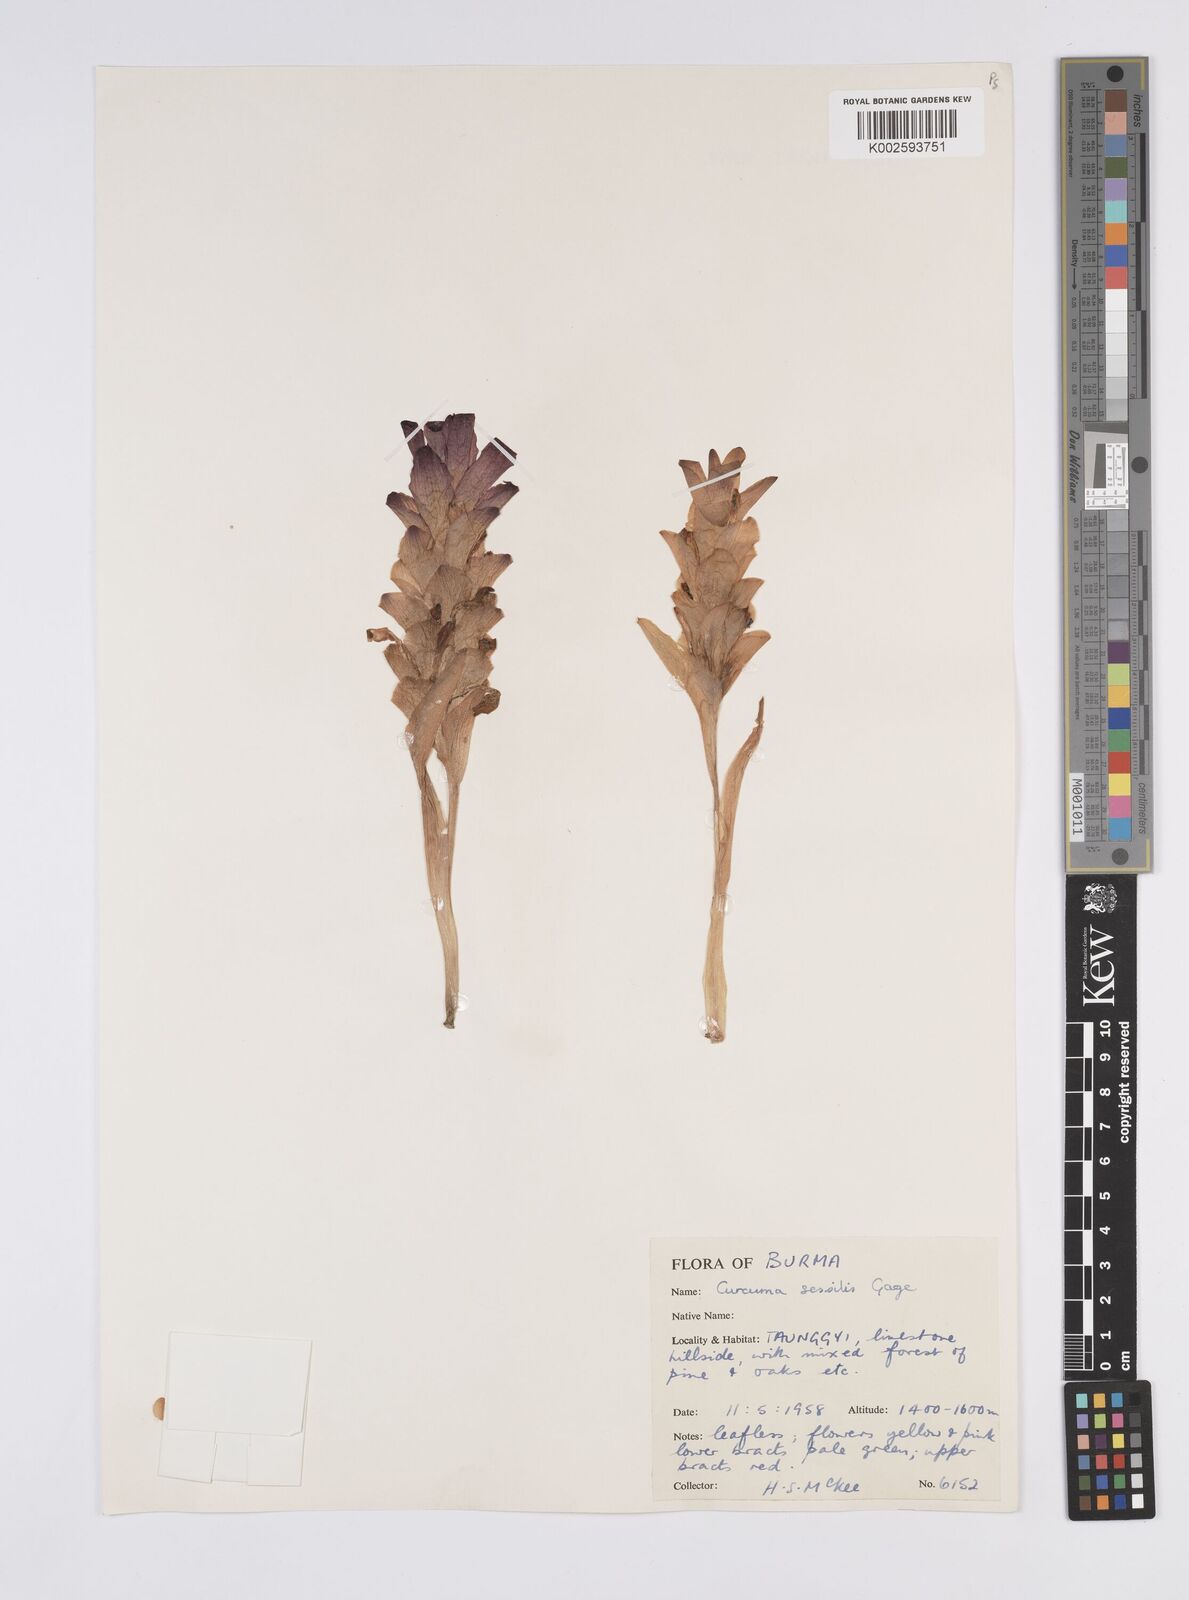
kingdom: Plantae
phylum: Tracheophyta
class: Liliopsida
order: Zingiberales
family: Zingiberaceae
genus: Curcuma
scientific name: Curcuma sessilis
